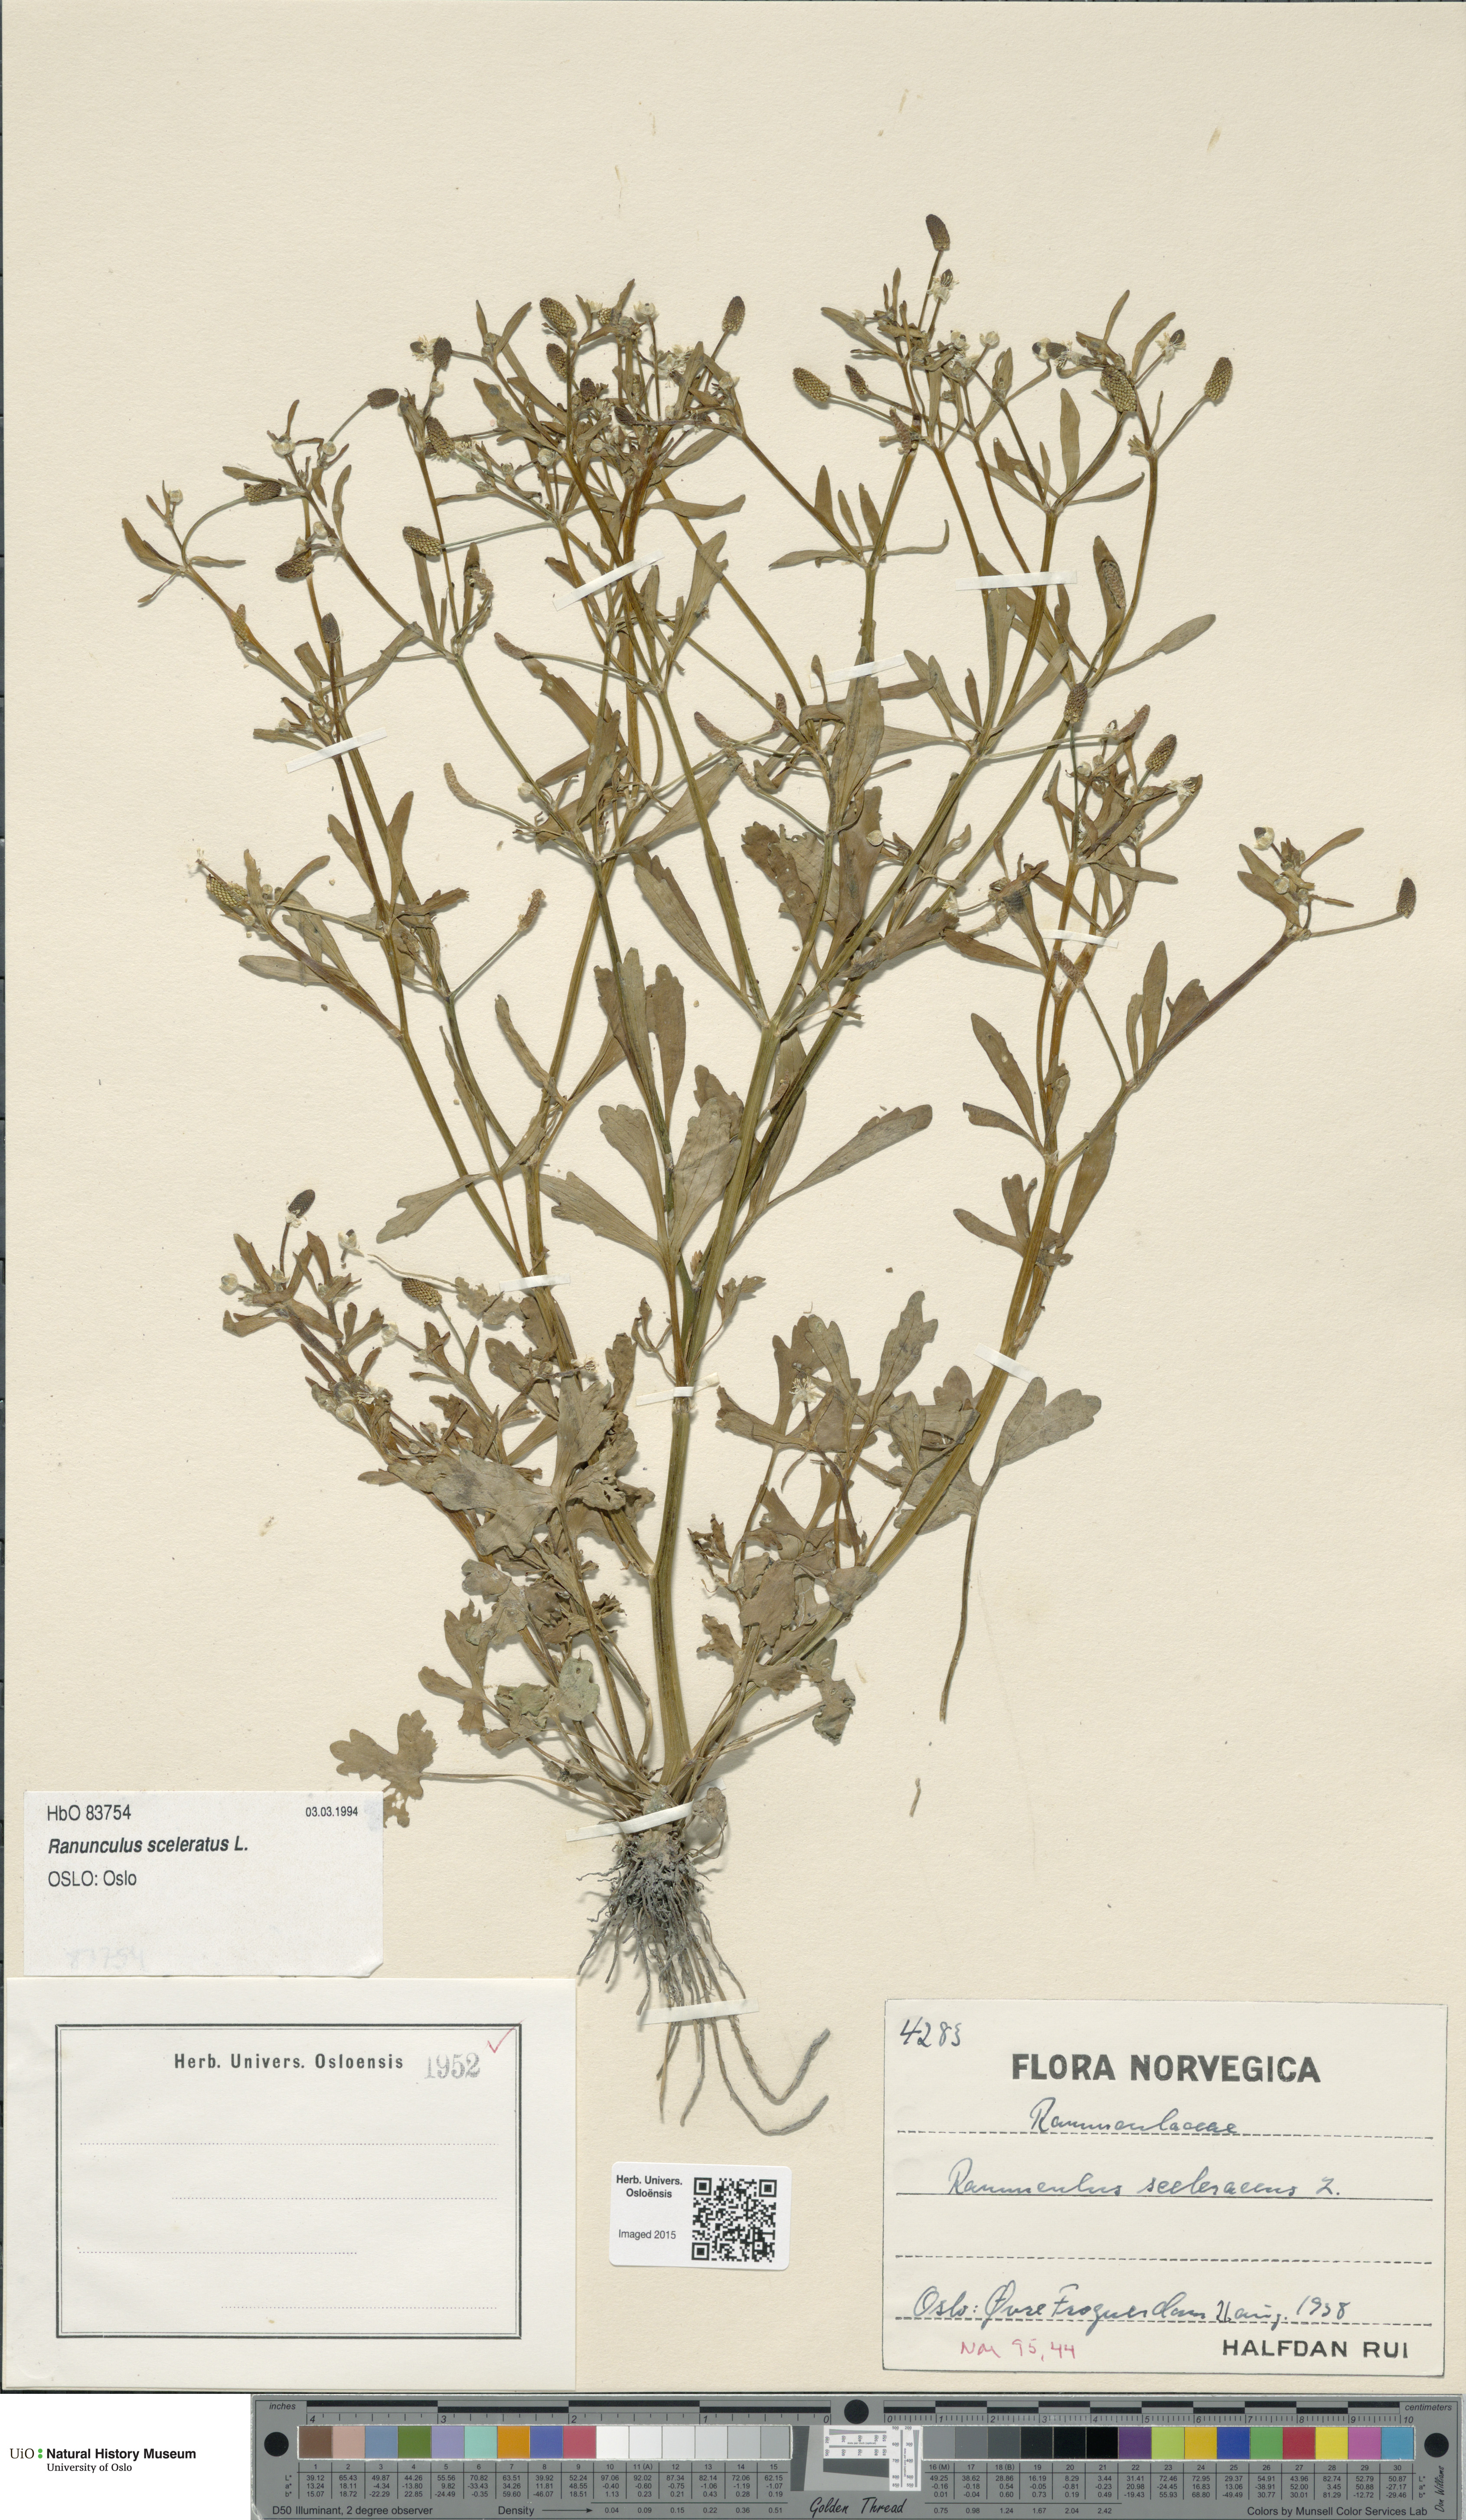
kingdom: Plantae
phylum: Tracheophyta
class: Magnoliopsida
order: Ranunculales
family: Ranunculaceae
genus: Ranunculus
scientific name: Ranunculus sceleratus
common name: Celery-leaved buttercup
